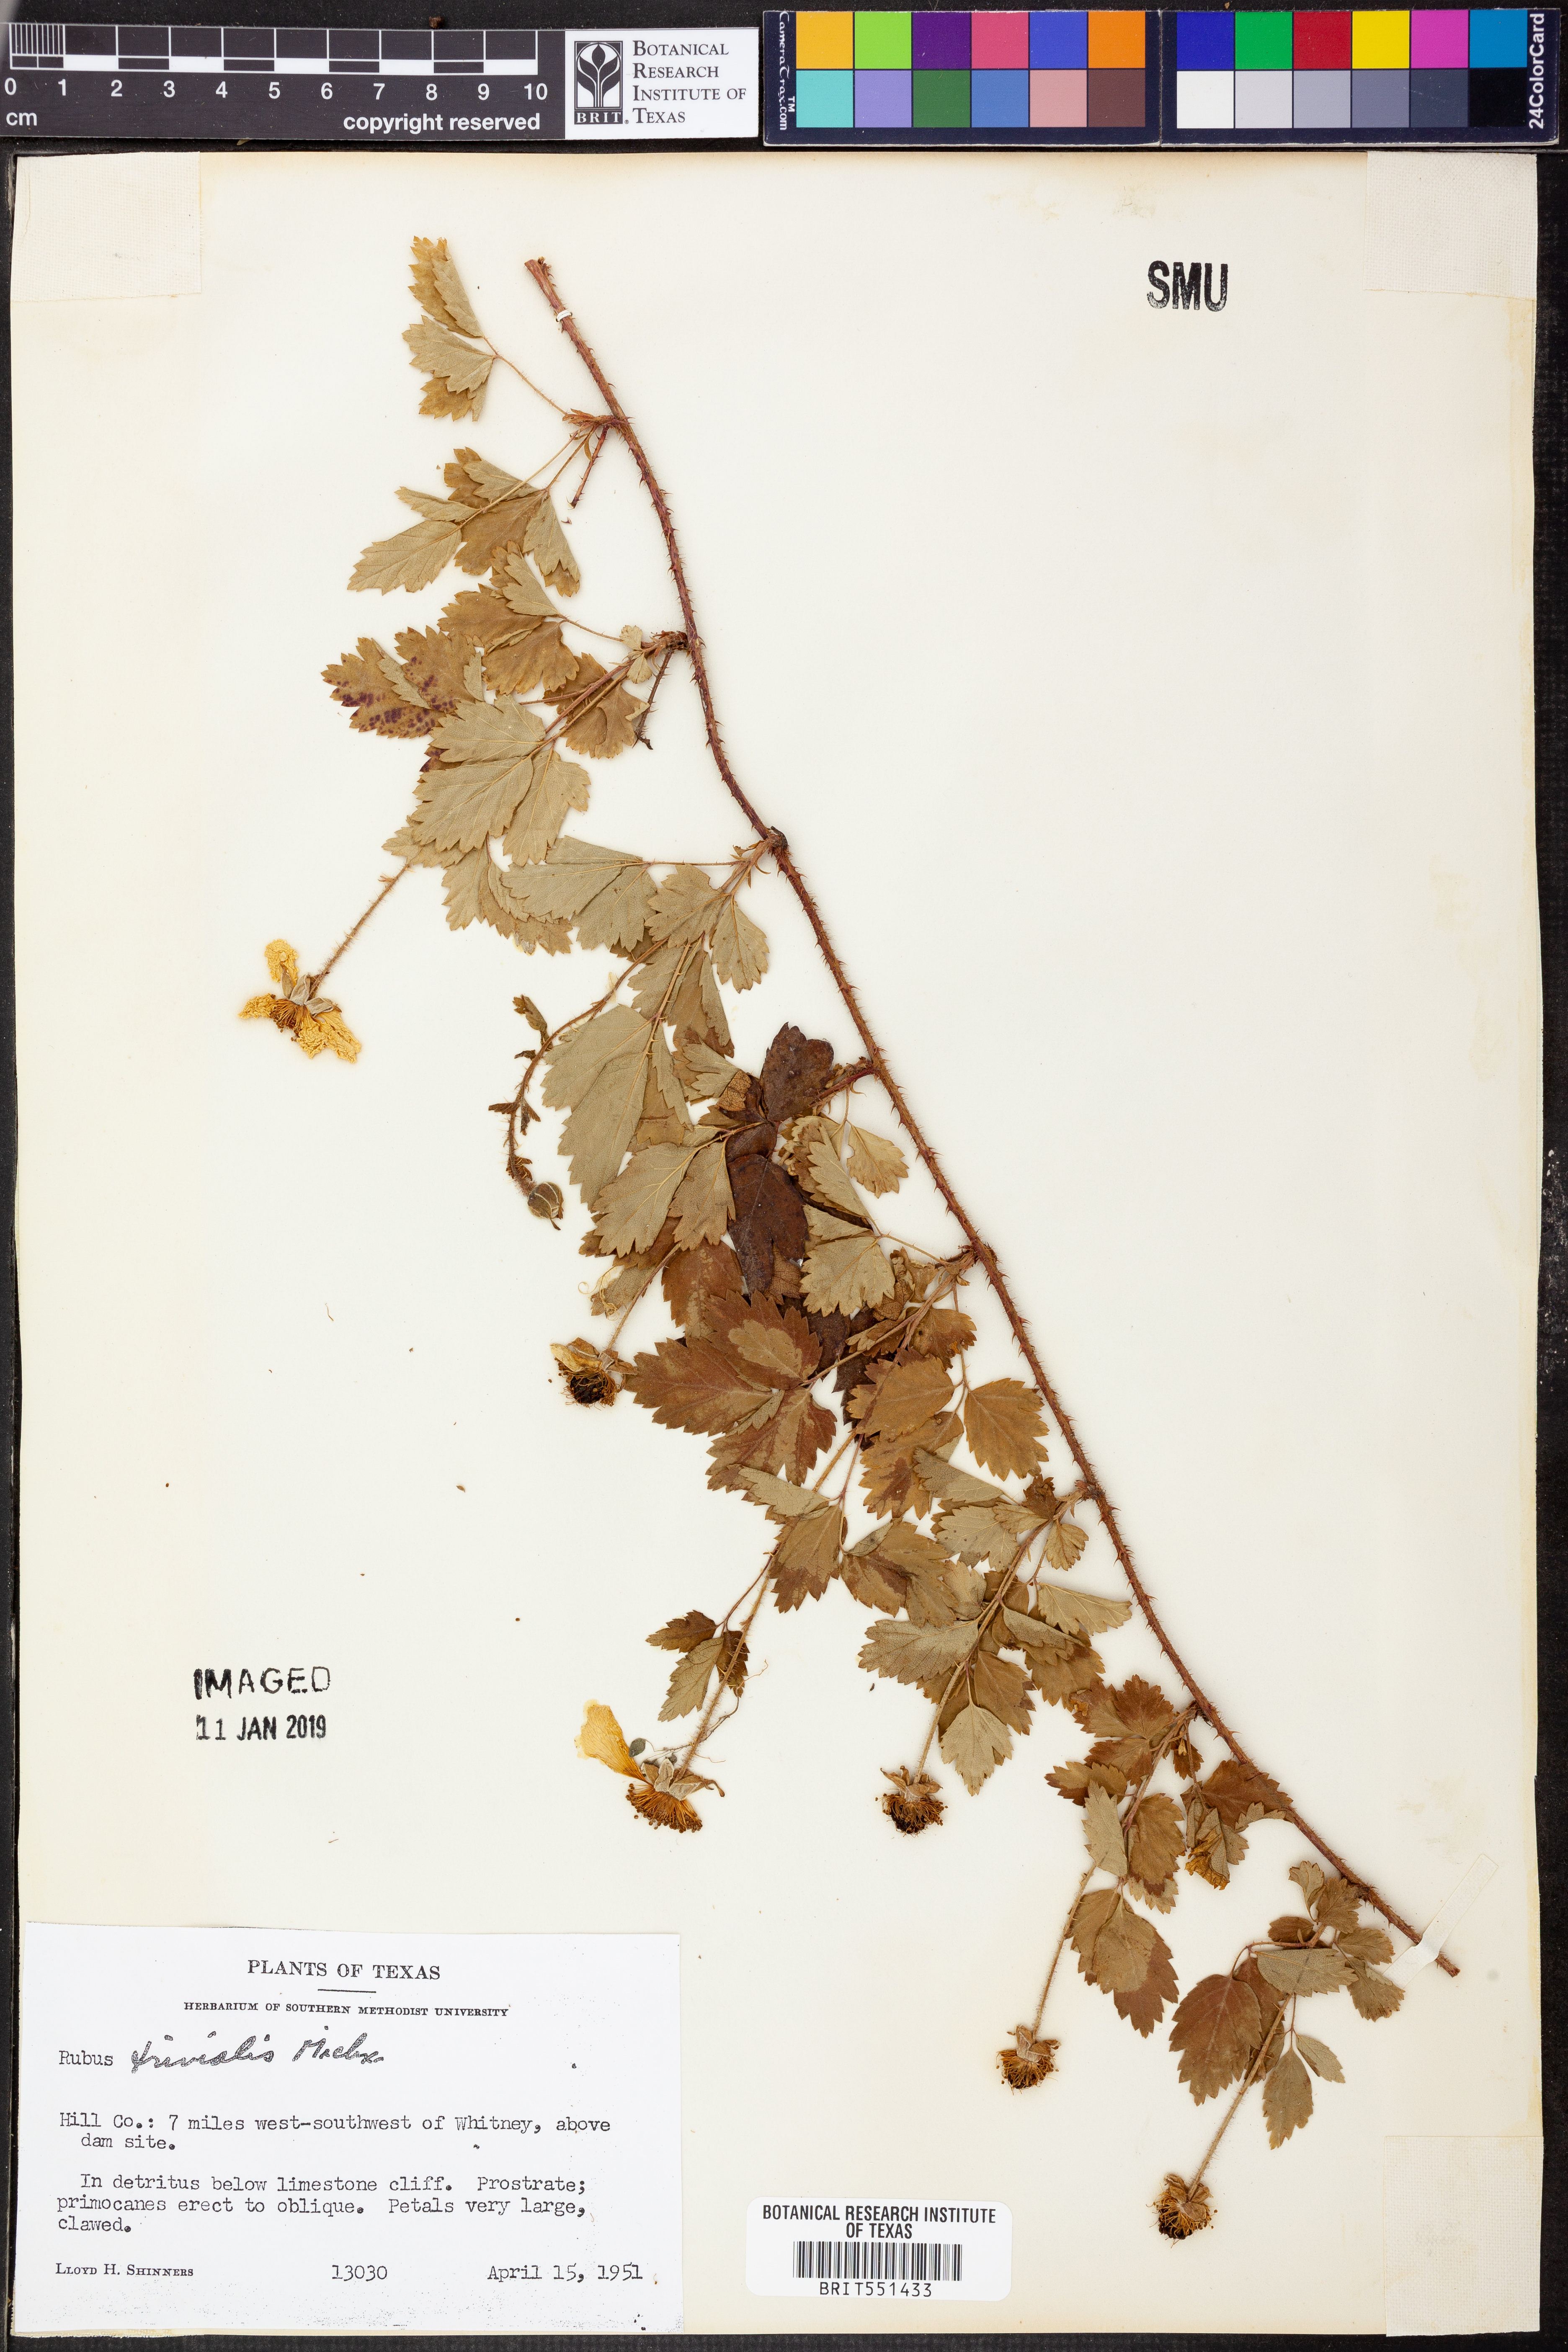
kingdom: Plantae
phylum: Tracheophyta
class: Magnoliopsida
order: Rosales
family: Rosaceae
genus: Rubus
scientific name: Rubus trivialis
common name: Southern dewberry
